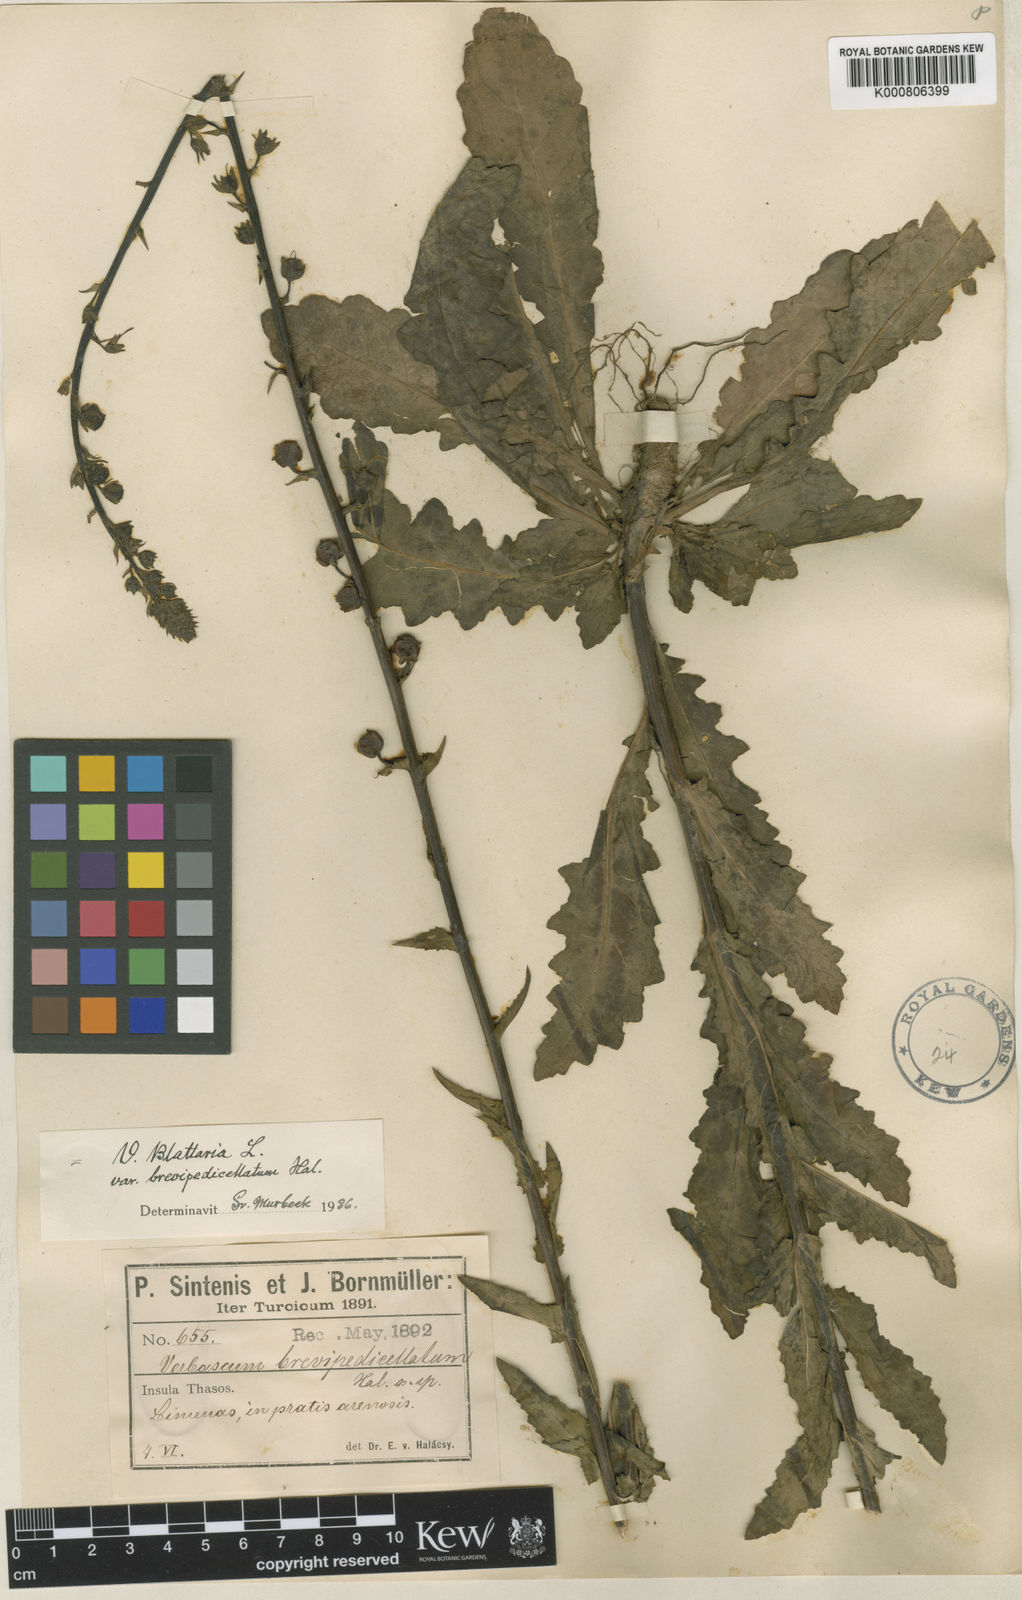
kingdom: Plantae
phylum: Tracheophyta
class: Magnoliopsida
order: Lamiales
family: Scrophulariaceae
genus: Verbascum
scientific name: Verbascum blattaria
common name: Moth mullein
